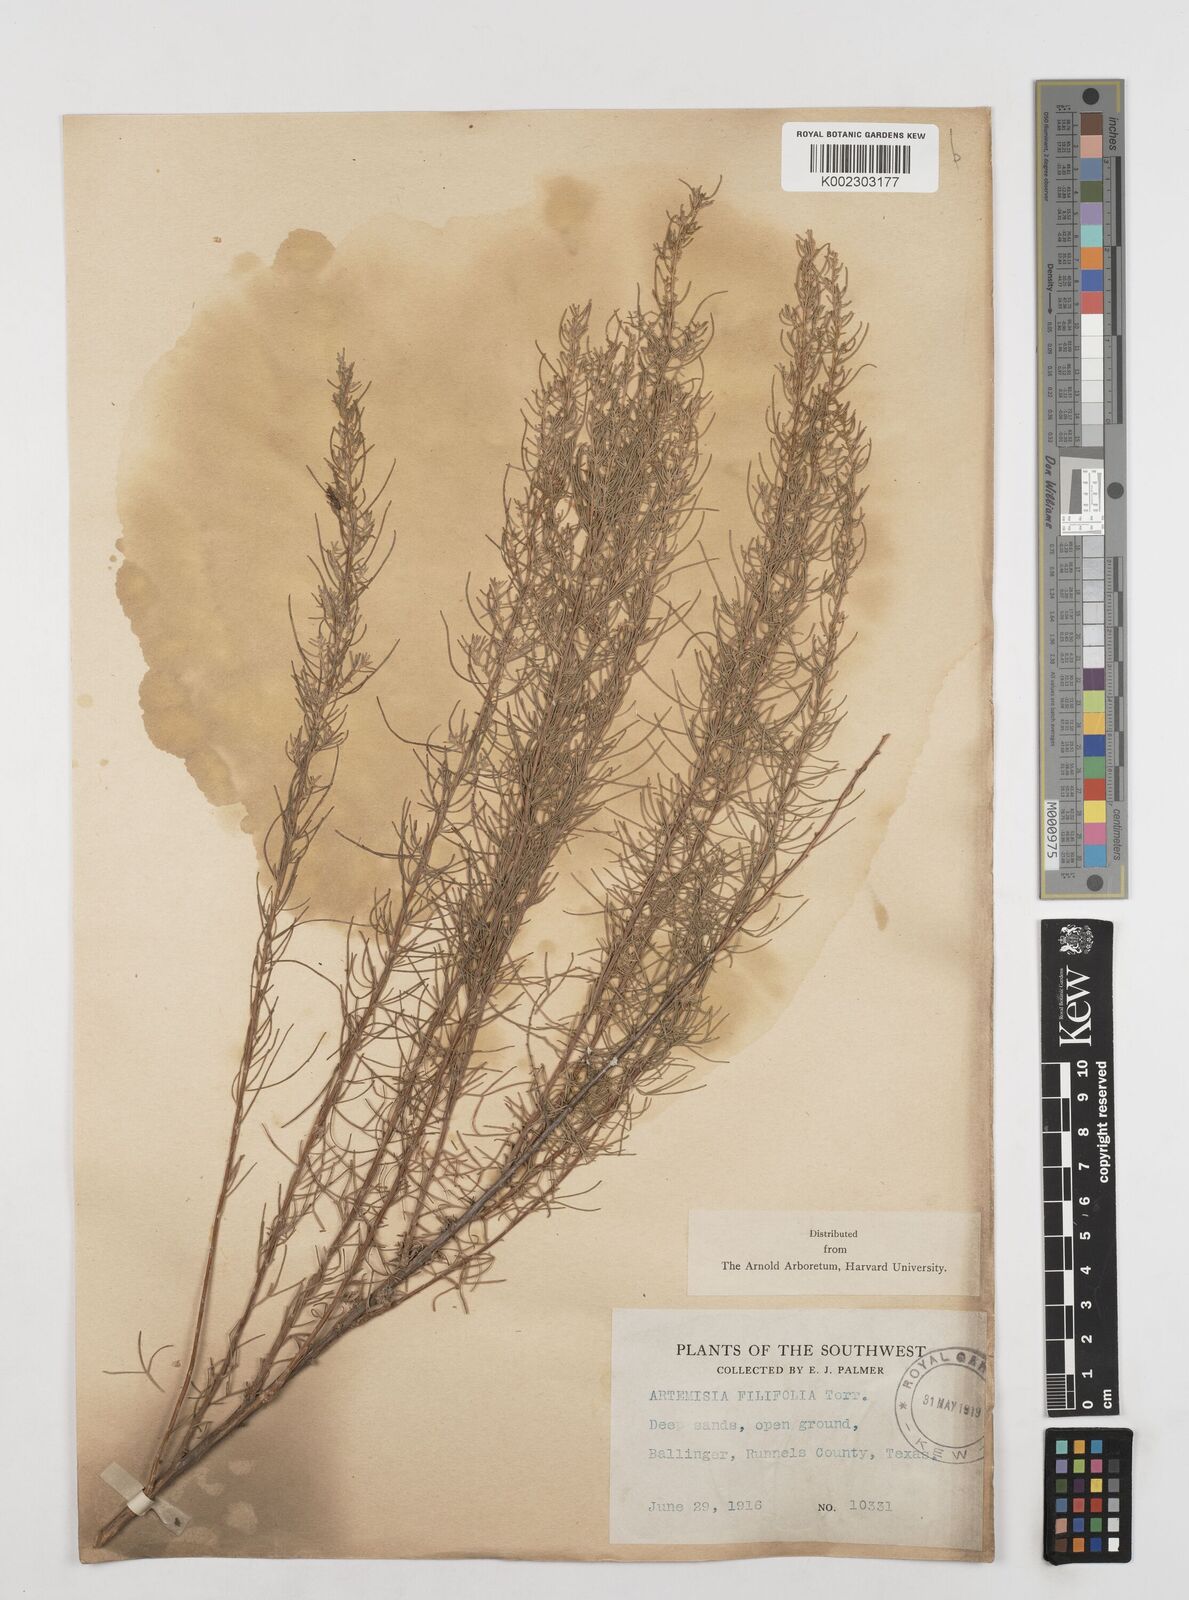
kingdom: Plantae
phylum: Tracheophyta
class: Magnoliopsida
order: Asterales
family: Asteraceae
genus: Artemisia
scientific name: Artemisia filifolia
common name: Sand-sage
